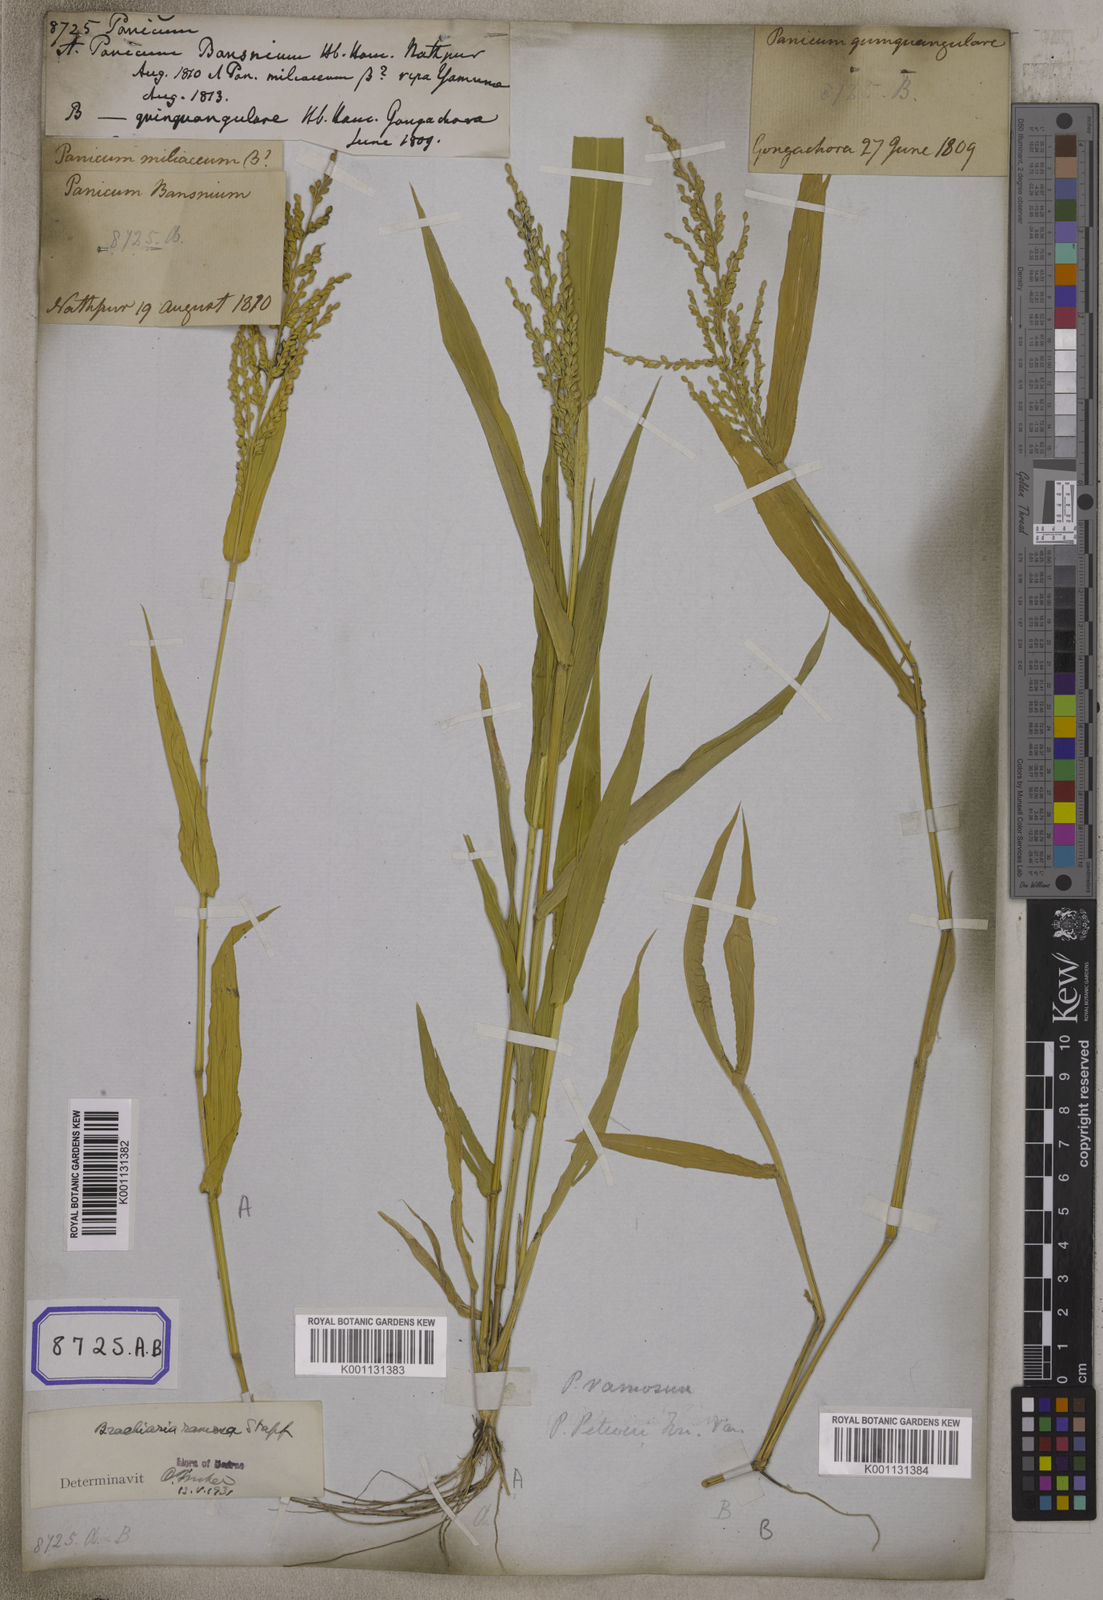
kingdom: Plantae
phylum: Tracheophyta
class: Liliopsida
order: Poales
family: Poaceae
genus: Panicum
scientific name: Panicum
